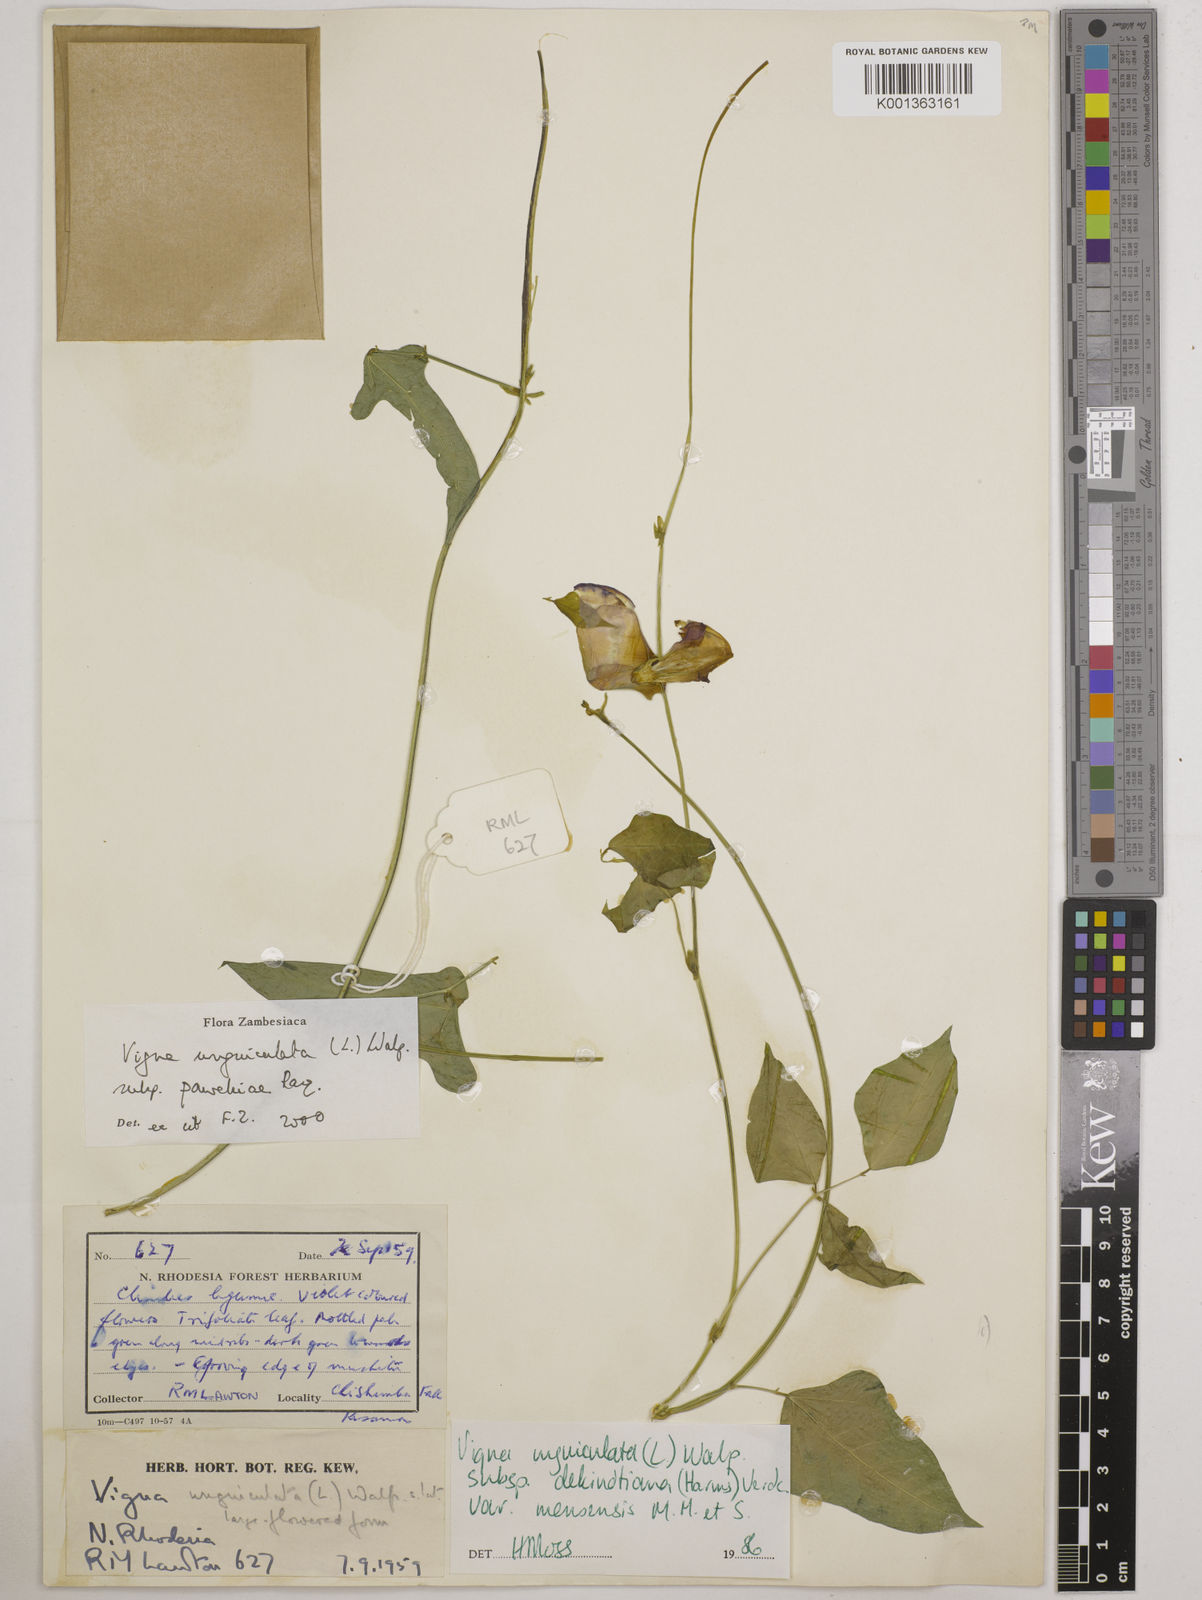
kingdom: Plantae
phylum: Tracheophyta
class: Magnoliopsida
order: Fabales
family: Fabaceae
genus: Vigna
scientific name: Vigna unguiculata
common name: Cowpea
